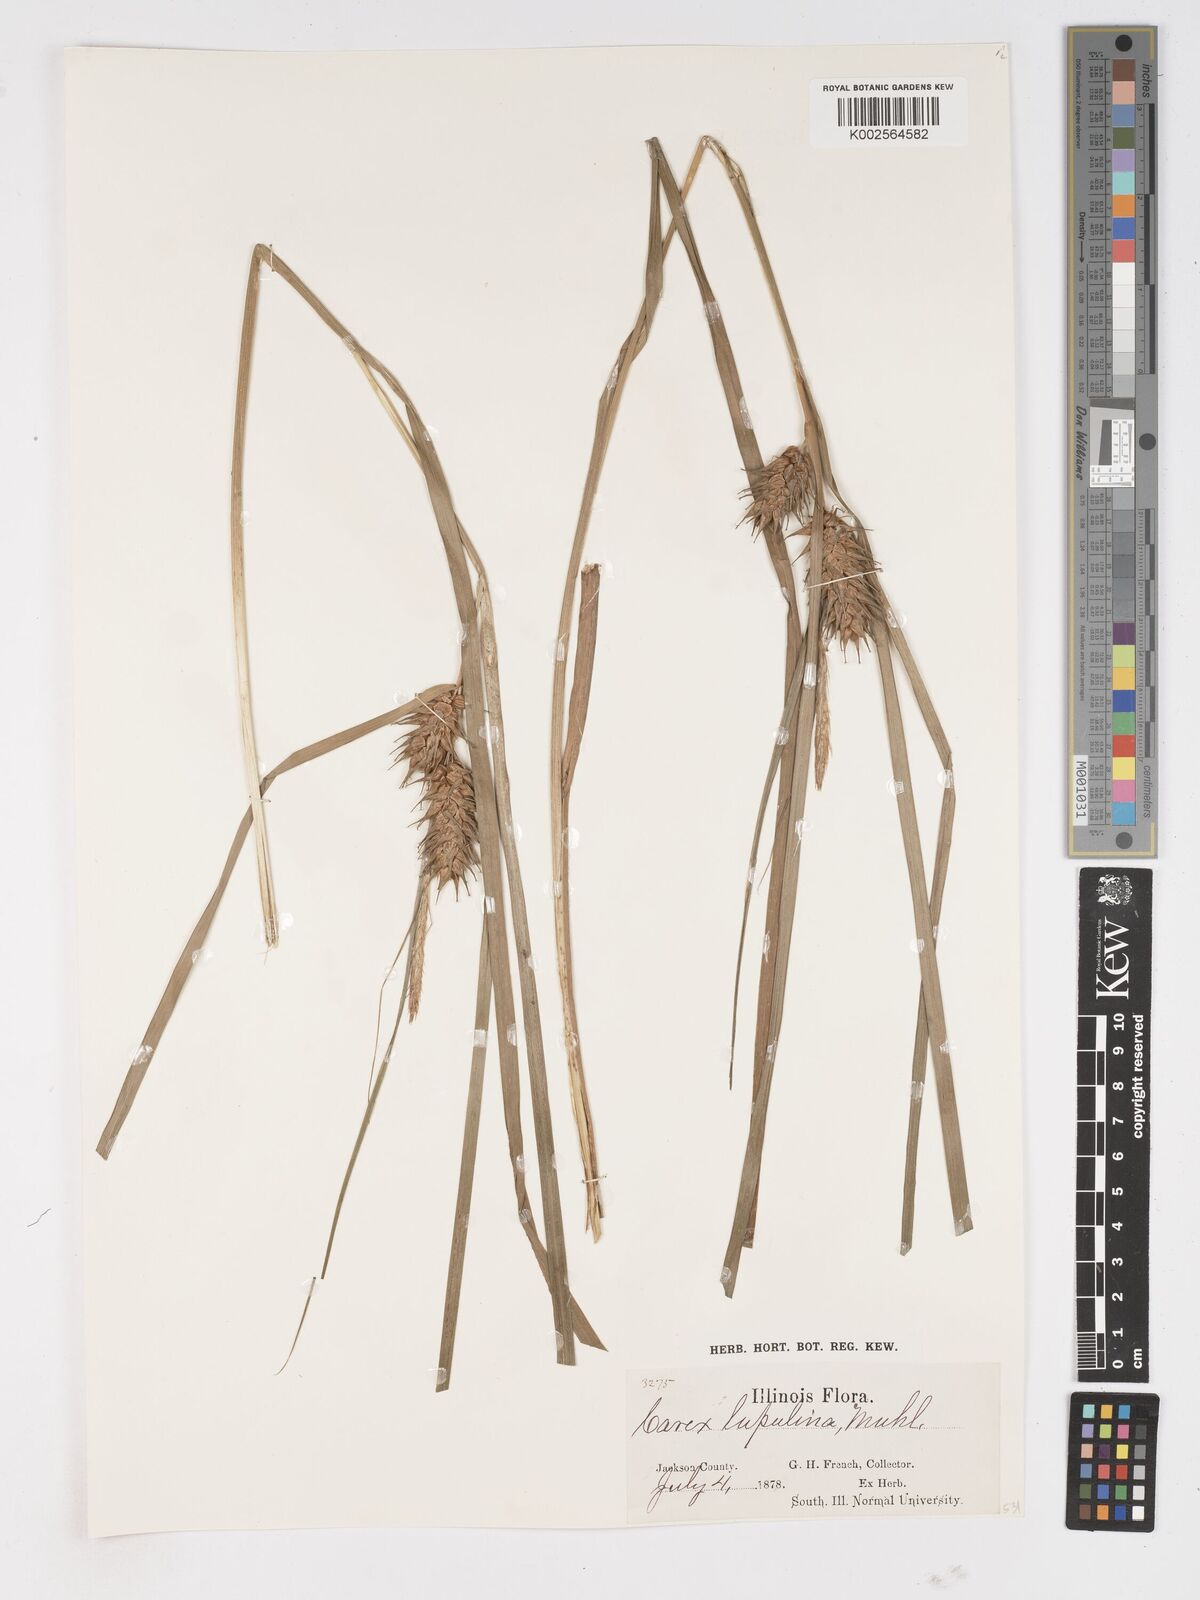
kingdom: Plantae
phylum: Tracheophyta
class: Liliopsida
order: Poales
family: Cyperaceae
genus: Carex
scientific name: Carex lupulina
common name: Hop sedge
